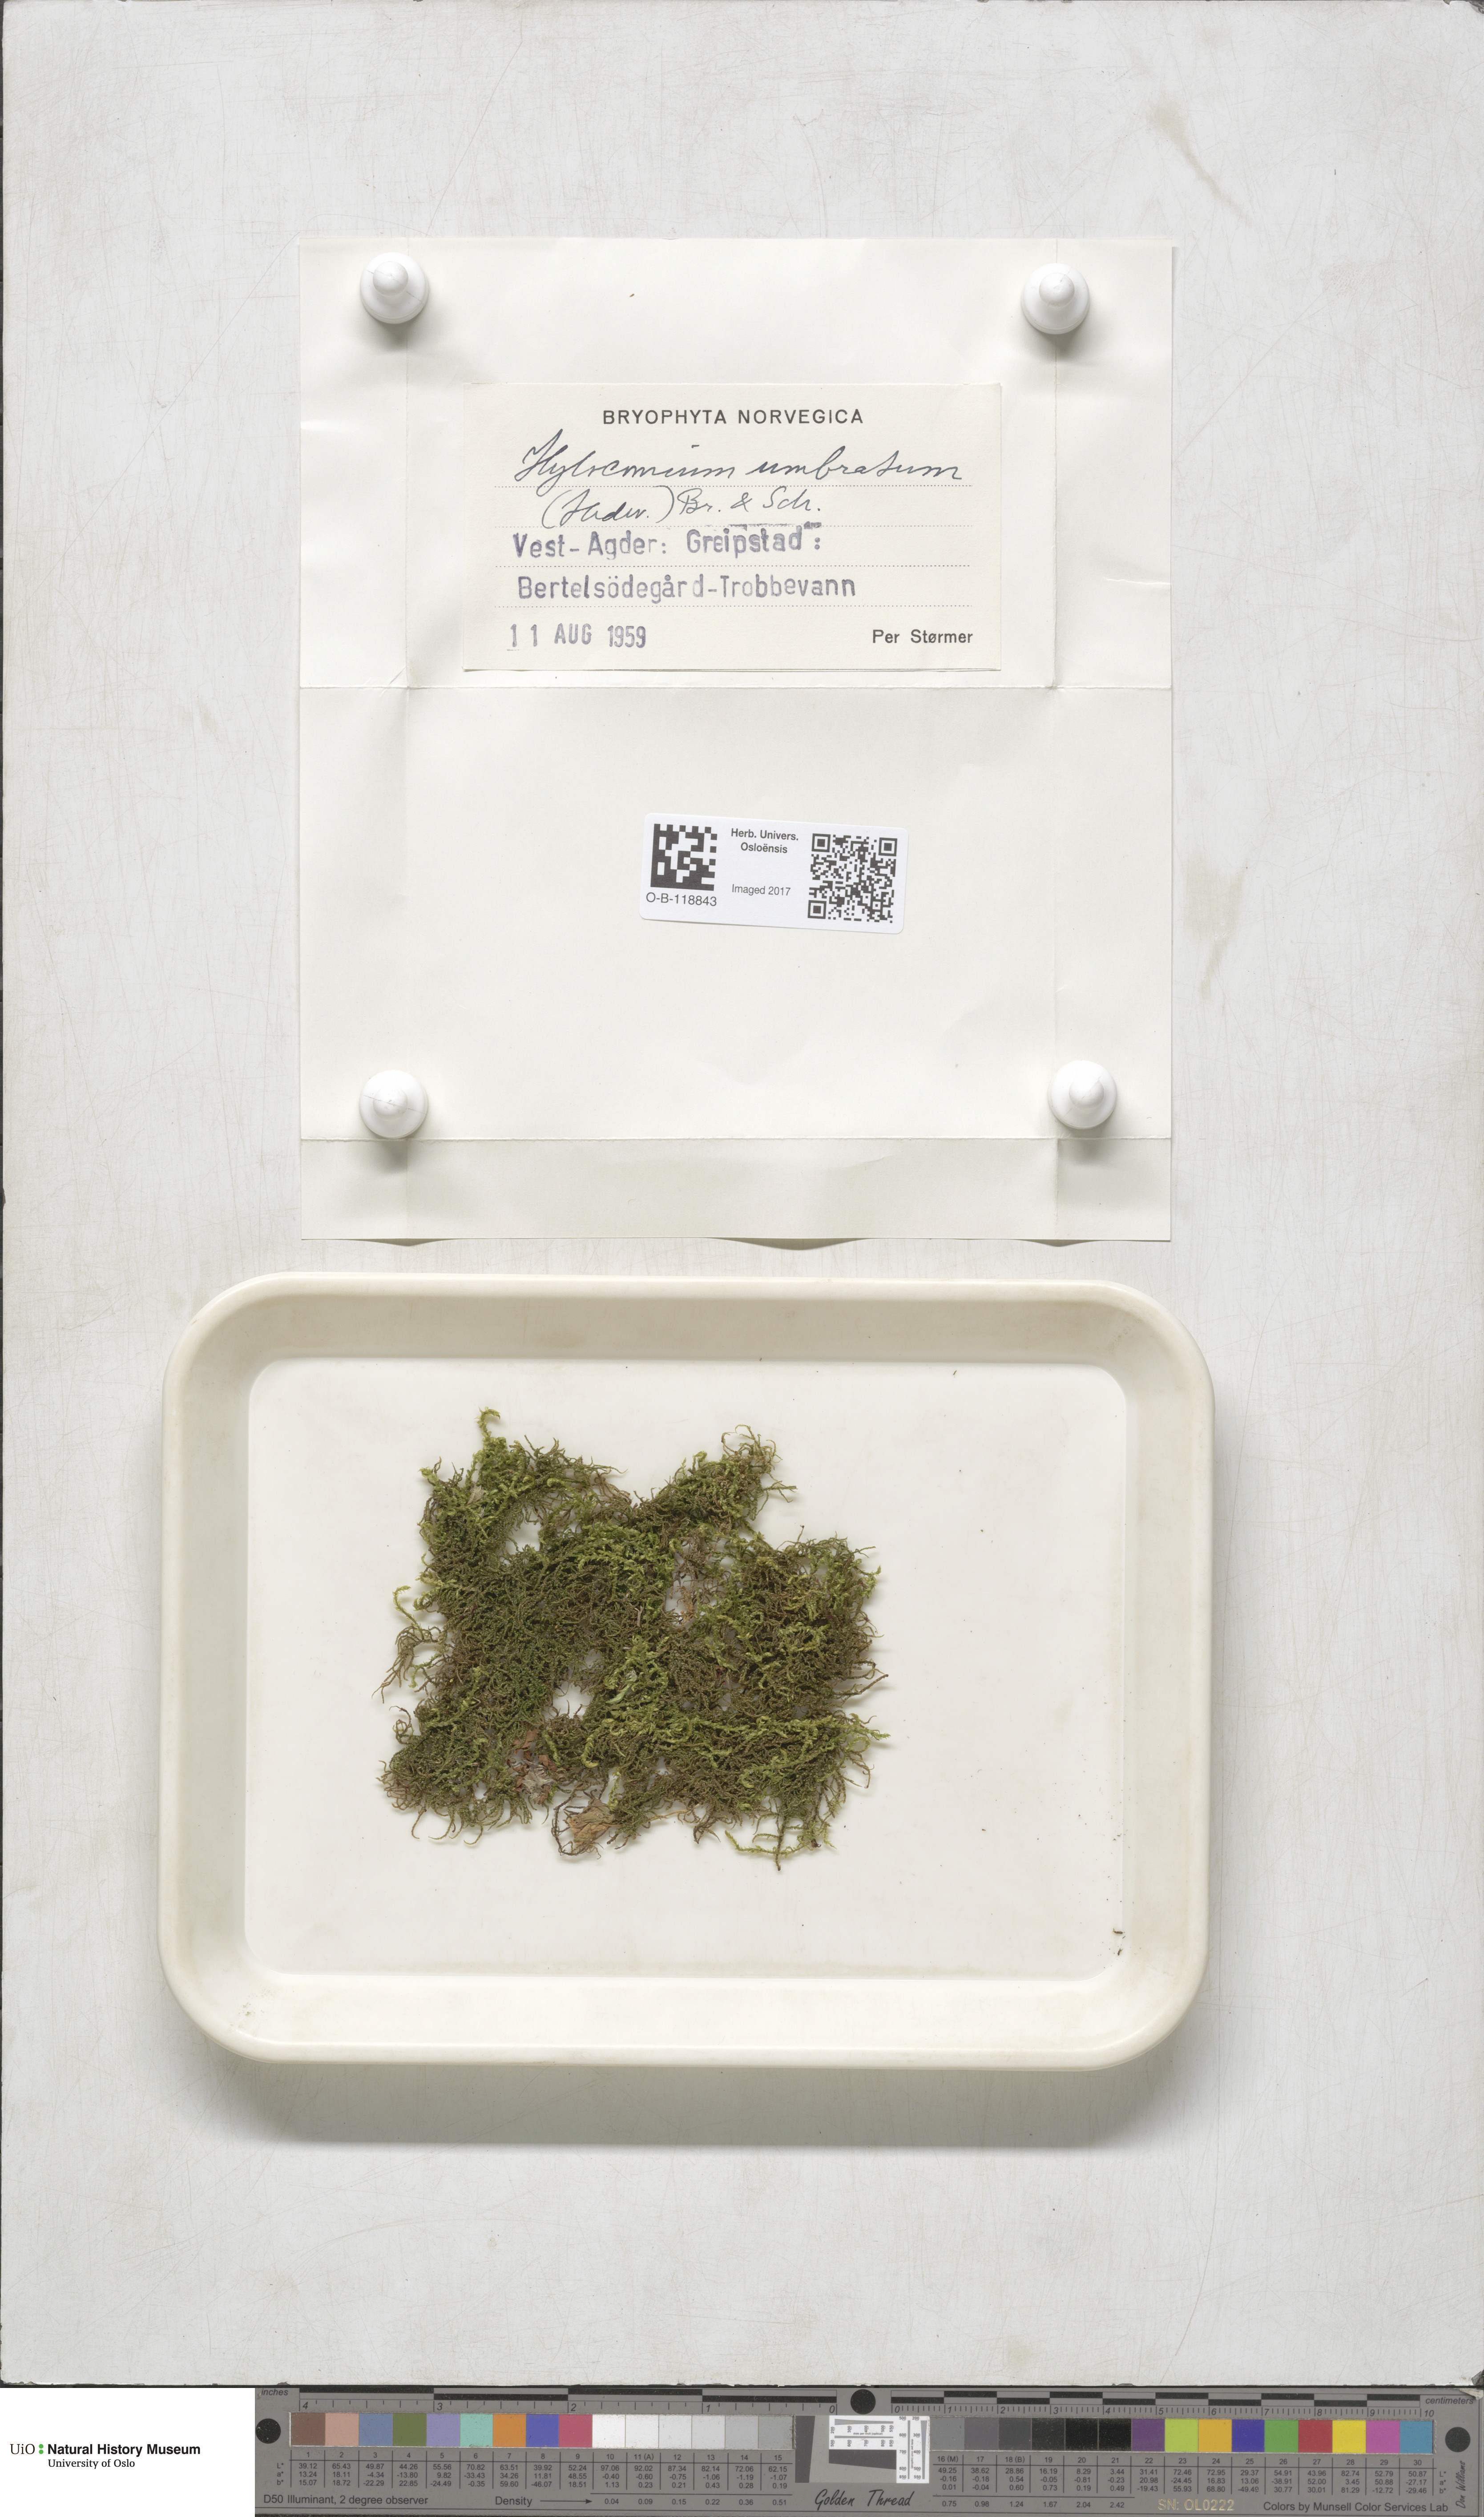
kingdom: Plantae
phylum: Bryophyta
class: Bryopsida
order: Hypnales
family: Hylocomiaceae
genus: Hylocomiastrum
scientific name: Hylocomiastrum umbratum
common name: Shaded woods moss
